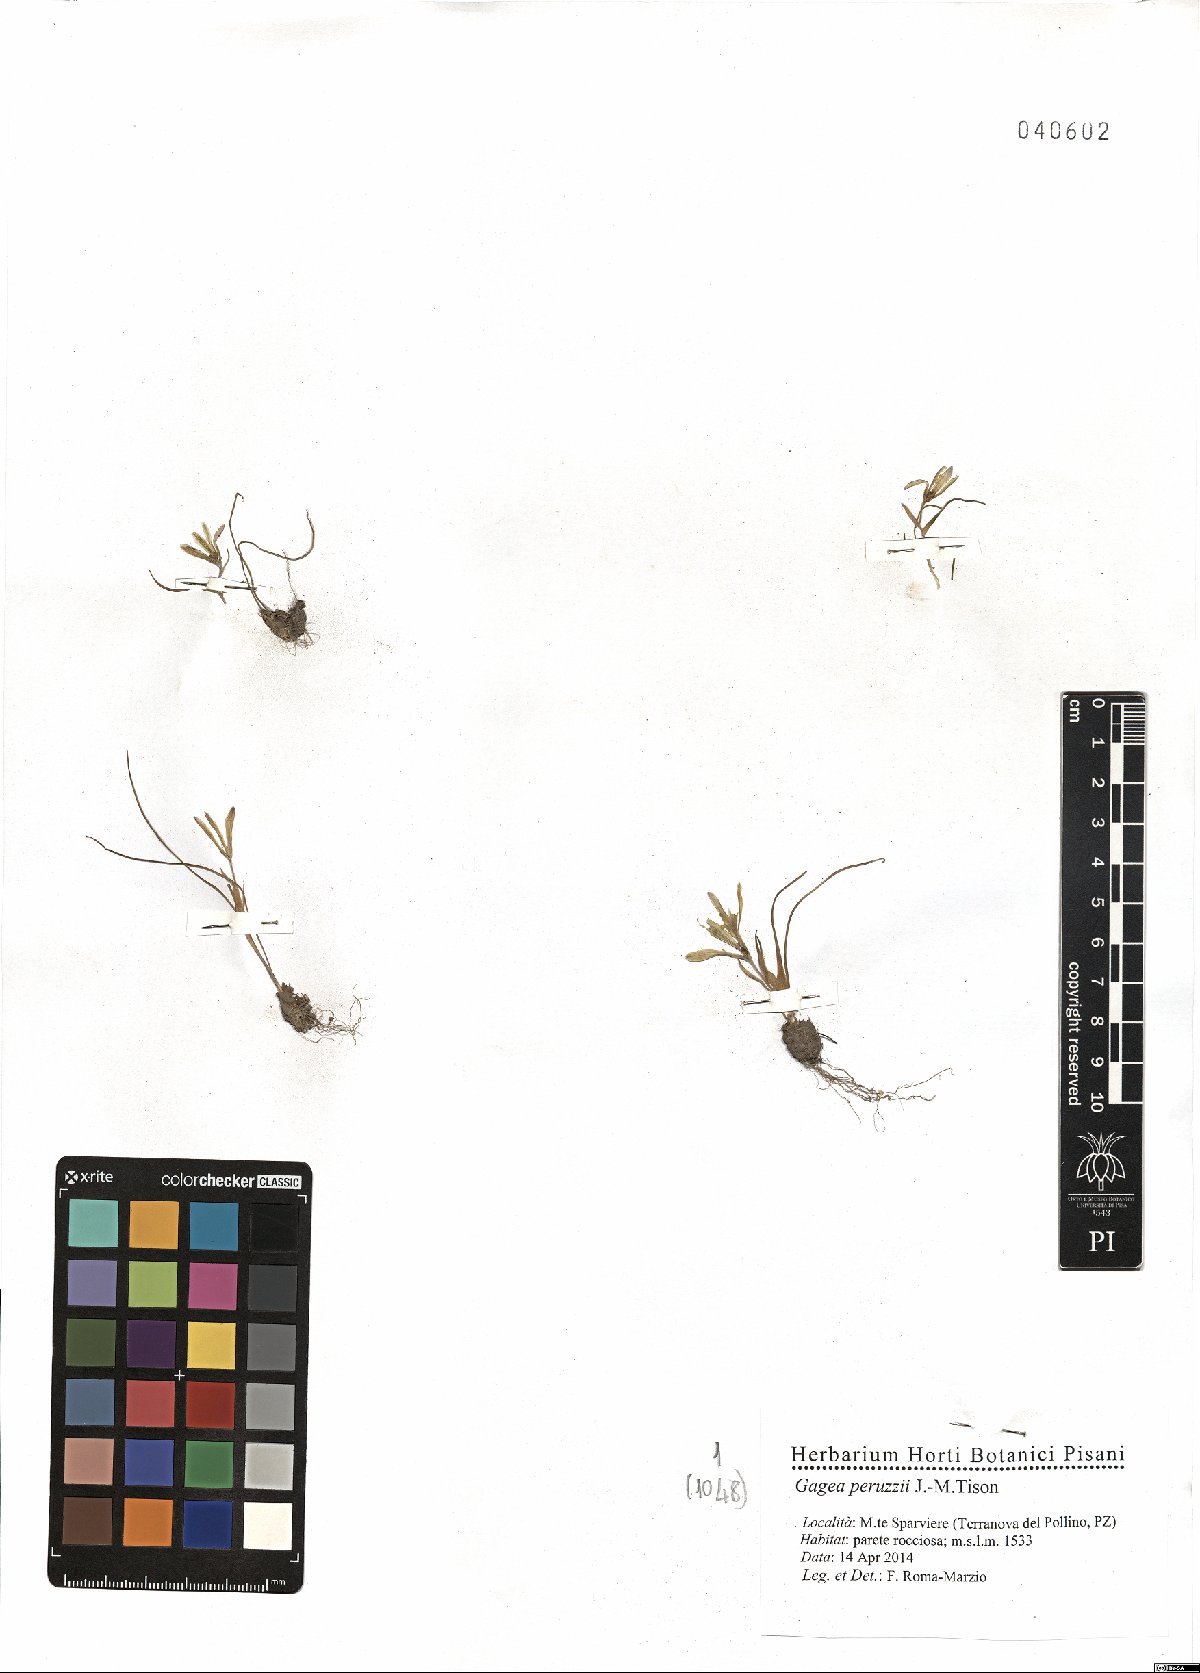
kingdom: Plantae
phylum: Tracheophyta
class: Liliopsida
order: Liliales
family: Liliaceae
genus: Gagea
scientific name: Gagea peruzzii
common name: Peruzzi’s gagea
